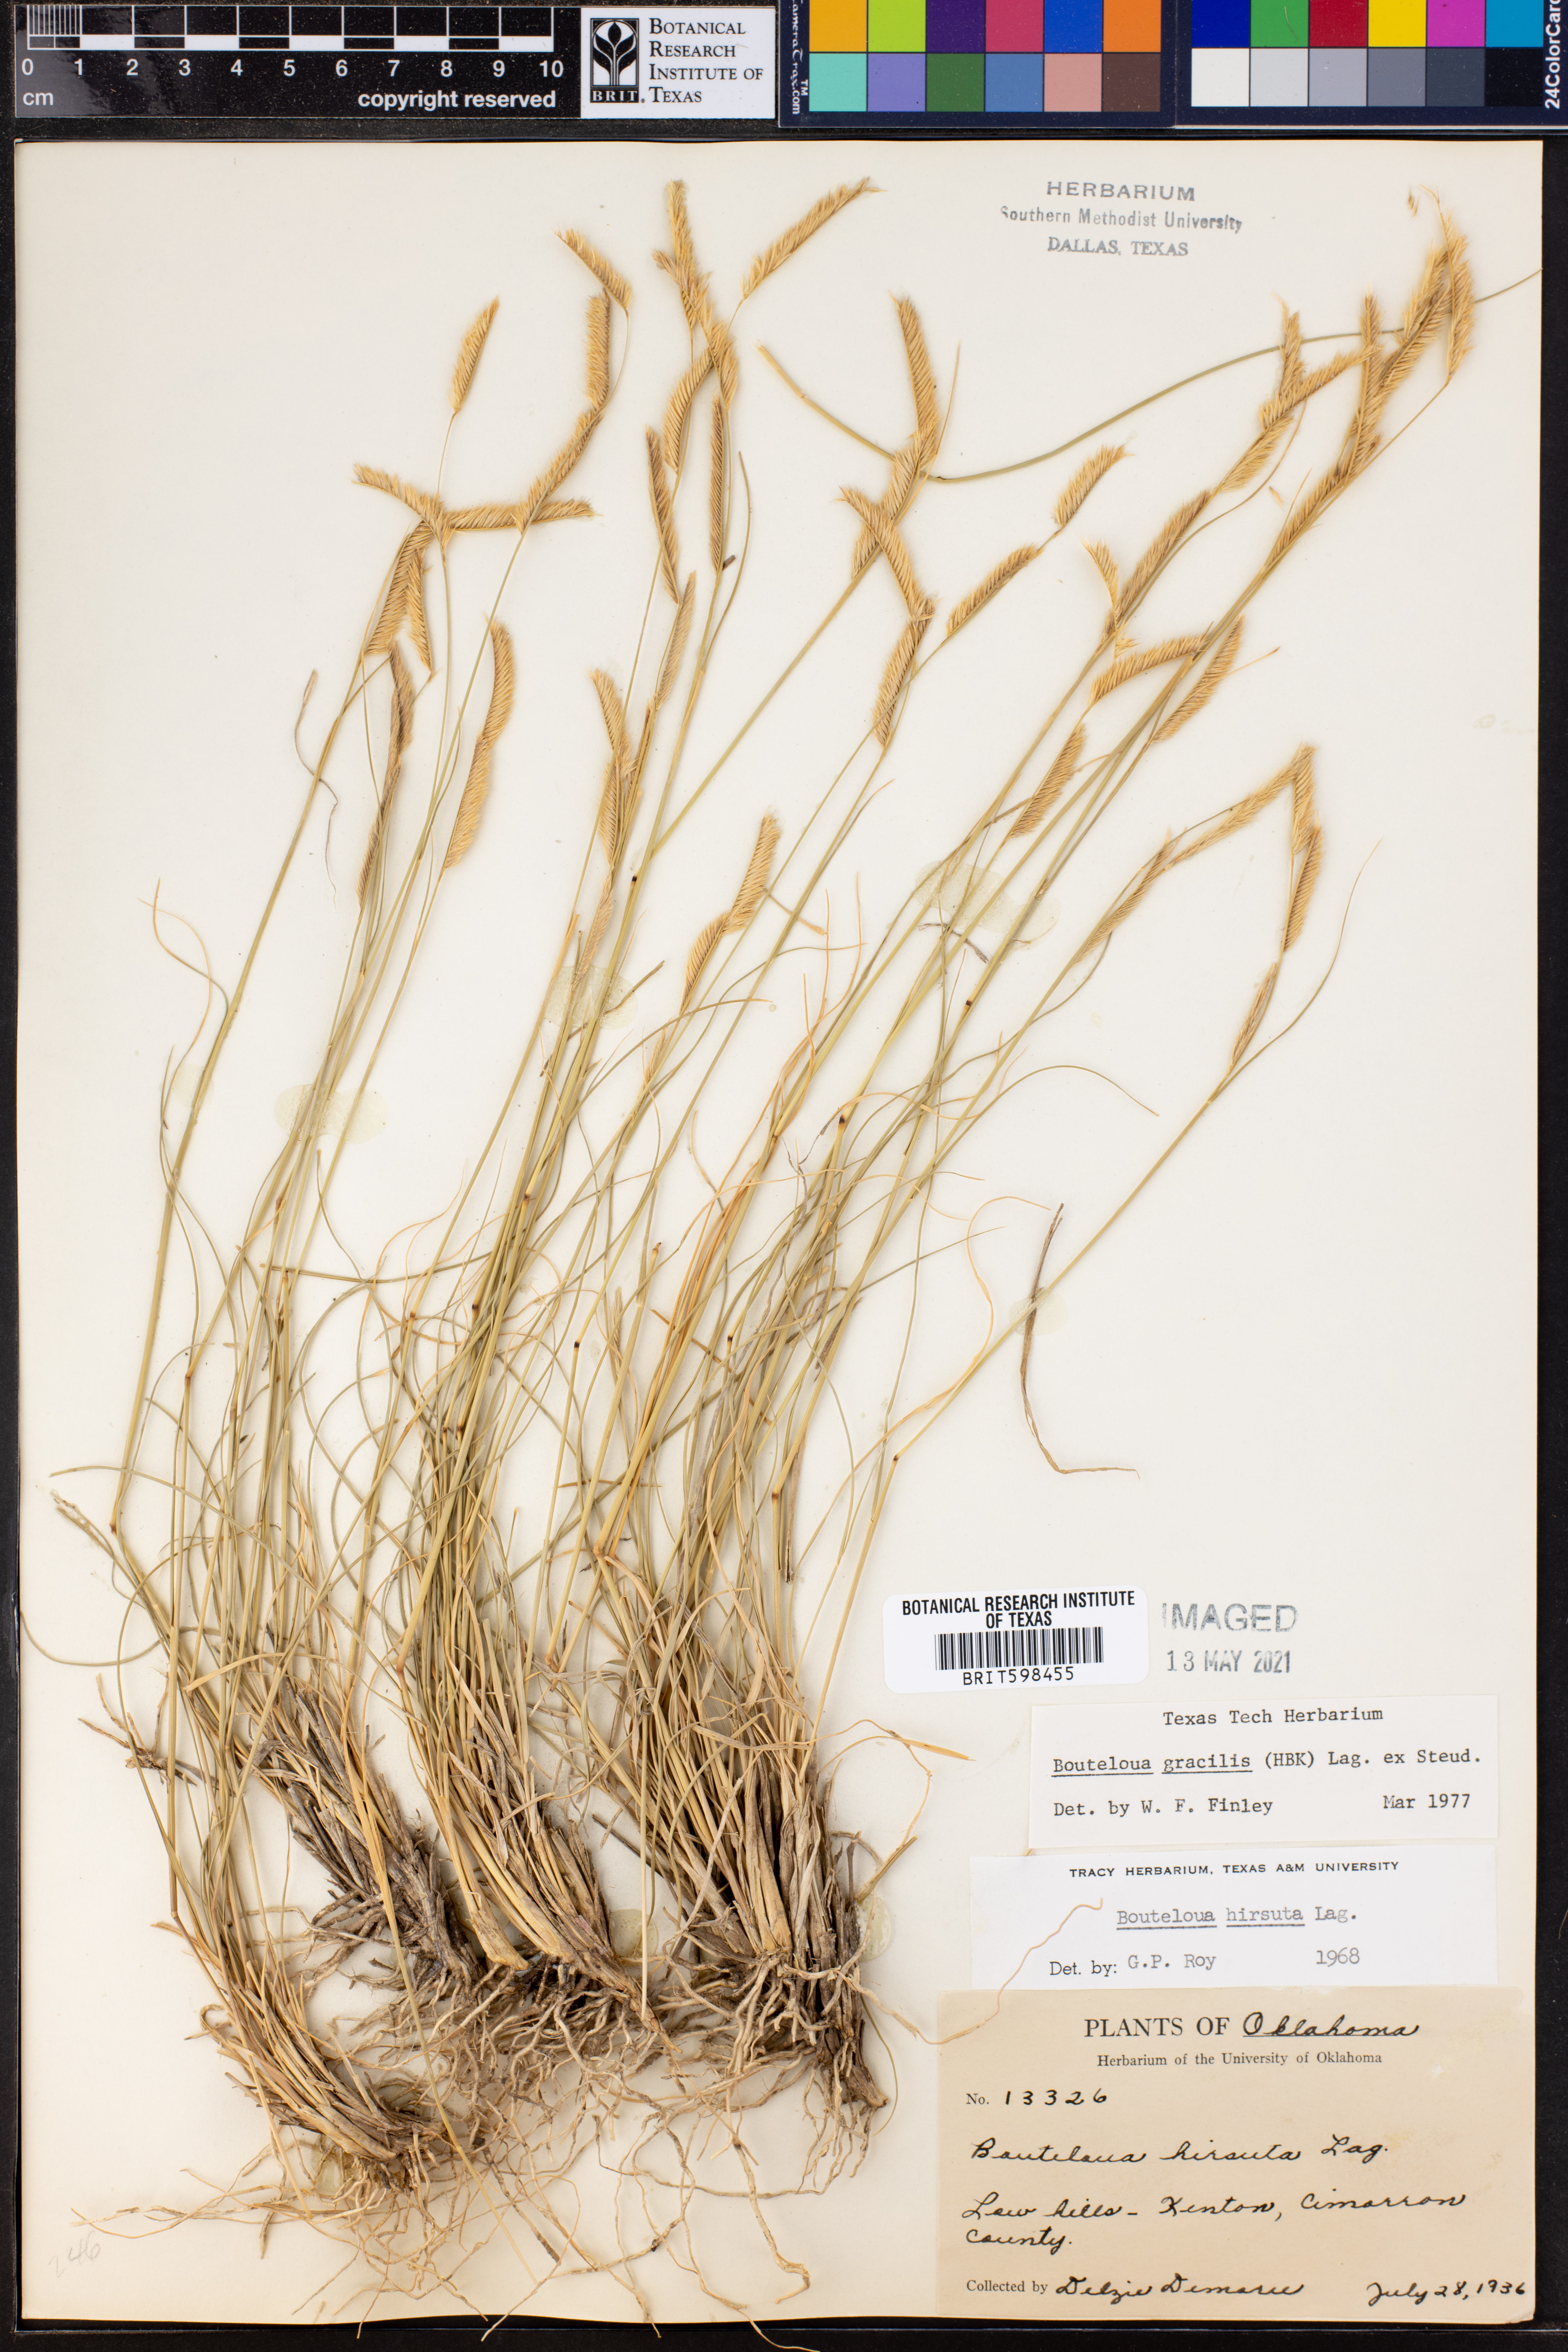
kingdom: Plantae
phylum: Tracheophyta
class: Liliopsida
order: Poales
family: Poaceae
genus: Bouteloua
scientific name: Bouteloua gracilis
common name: Blue grama
